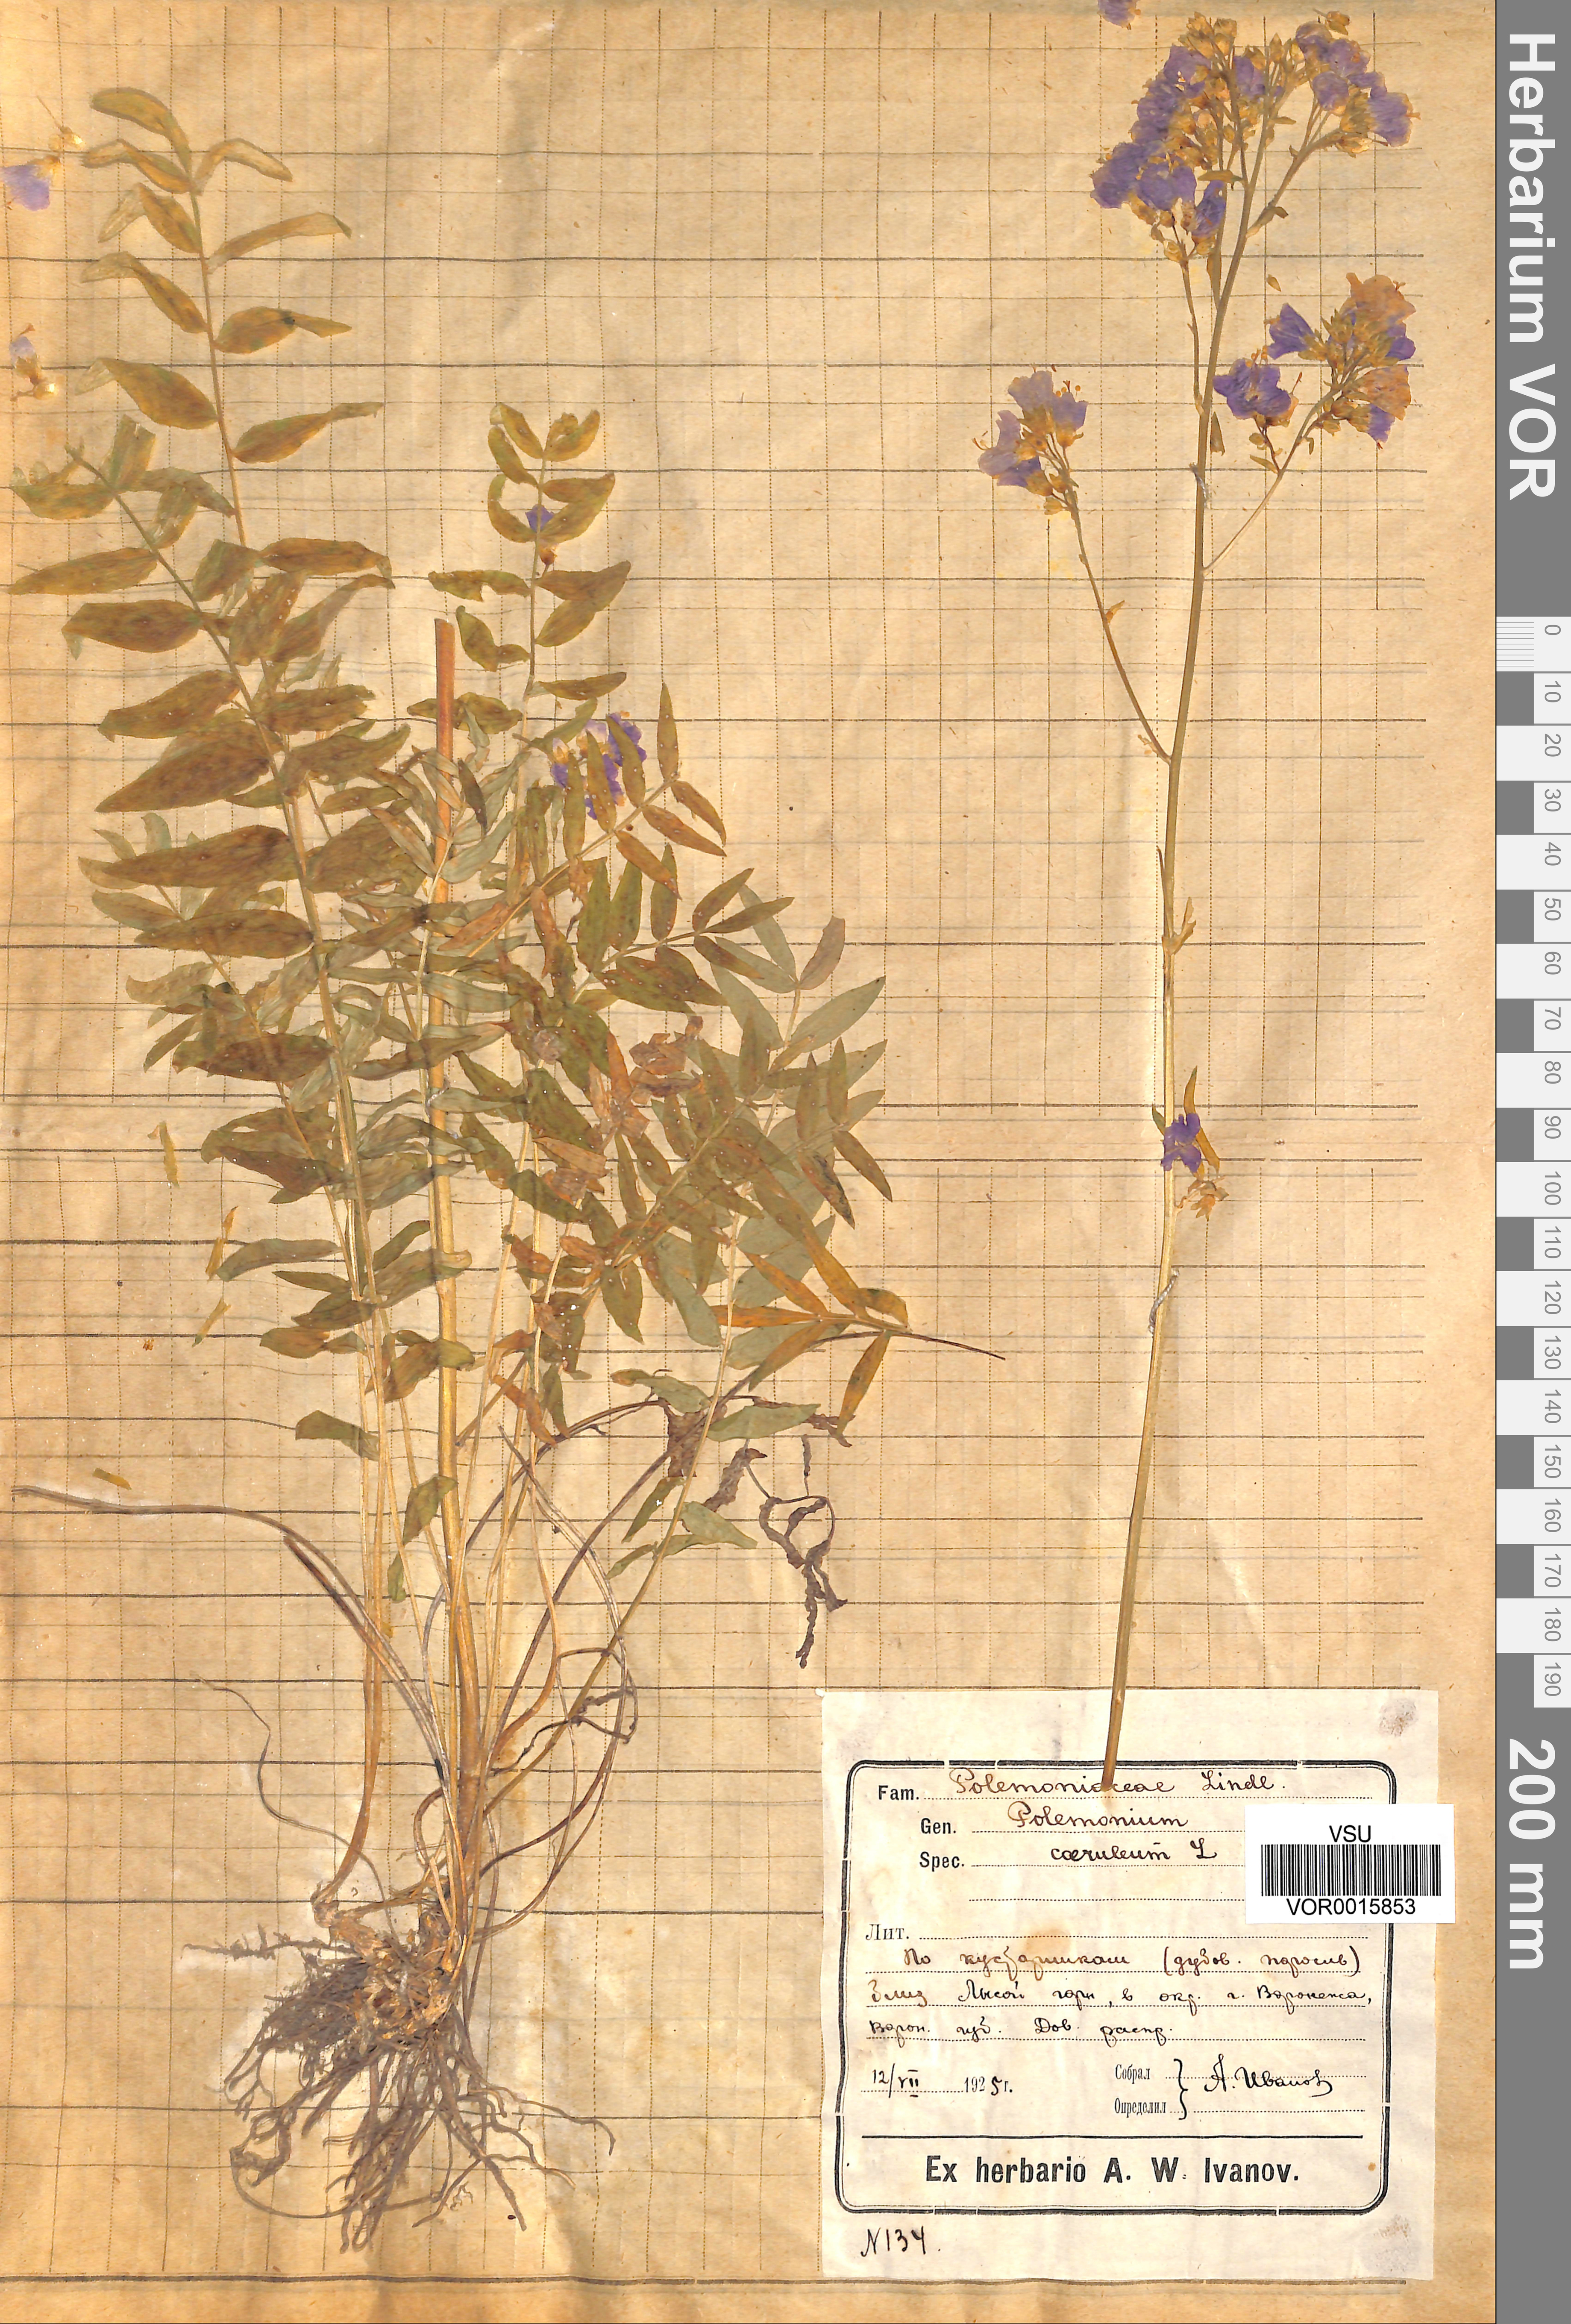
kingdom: Plantae
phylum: Tracheophyta
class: Magnoliopsida
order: Ericales
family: Polemoniaceae
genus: Polemonium
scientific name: Polemonium caeruleum
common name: Jacob's-ladder
